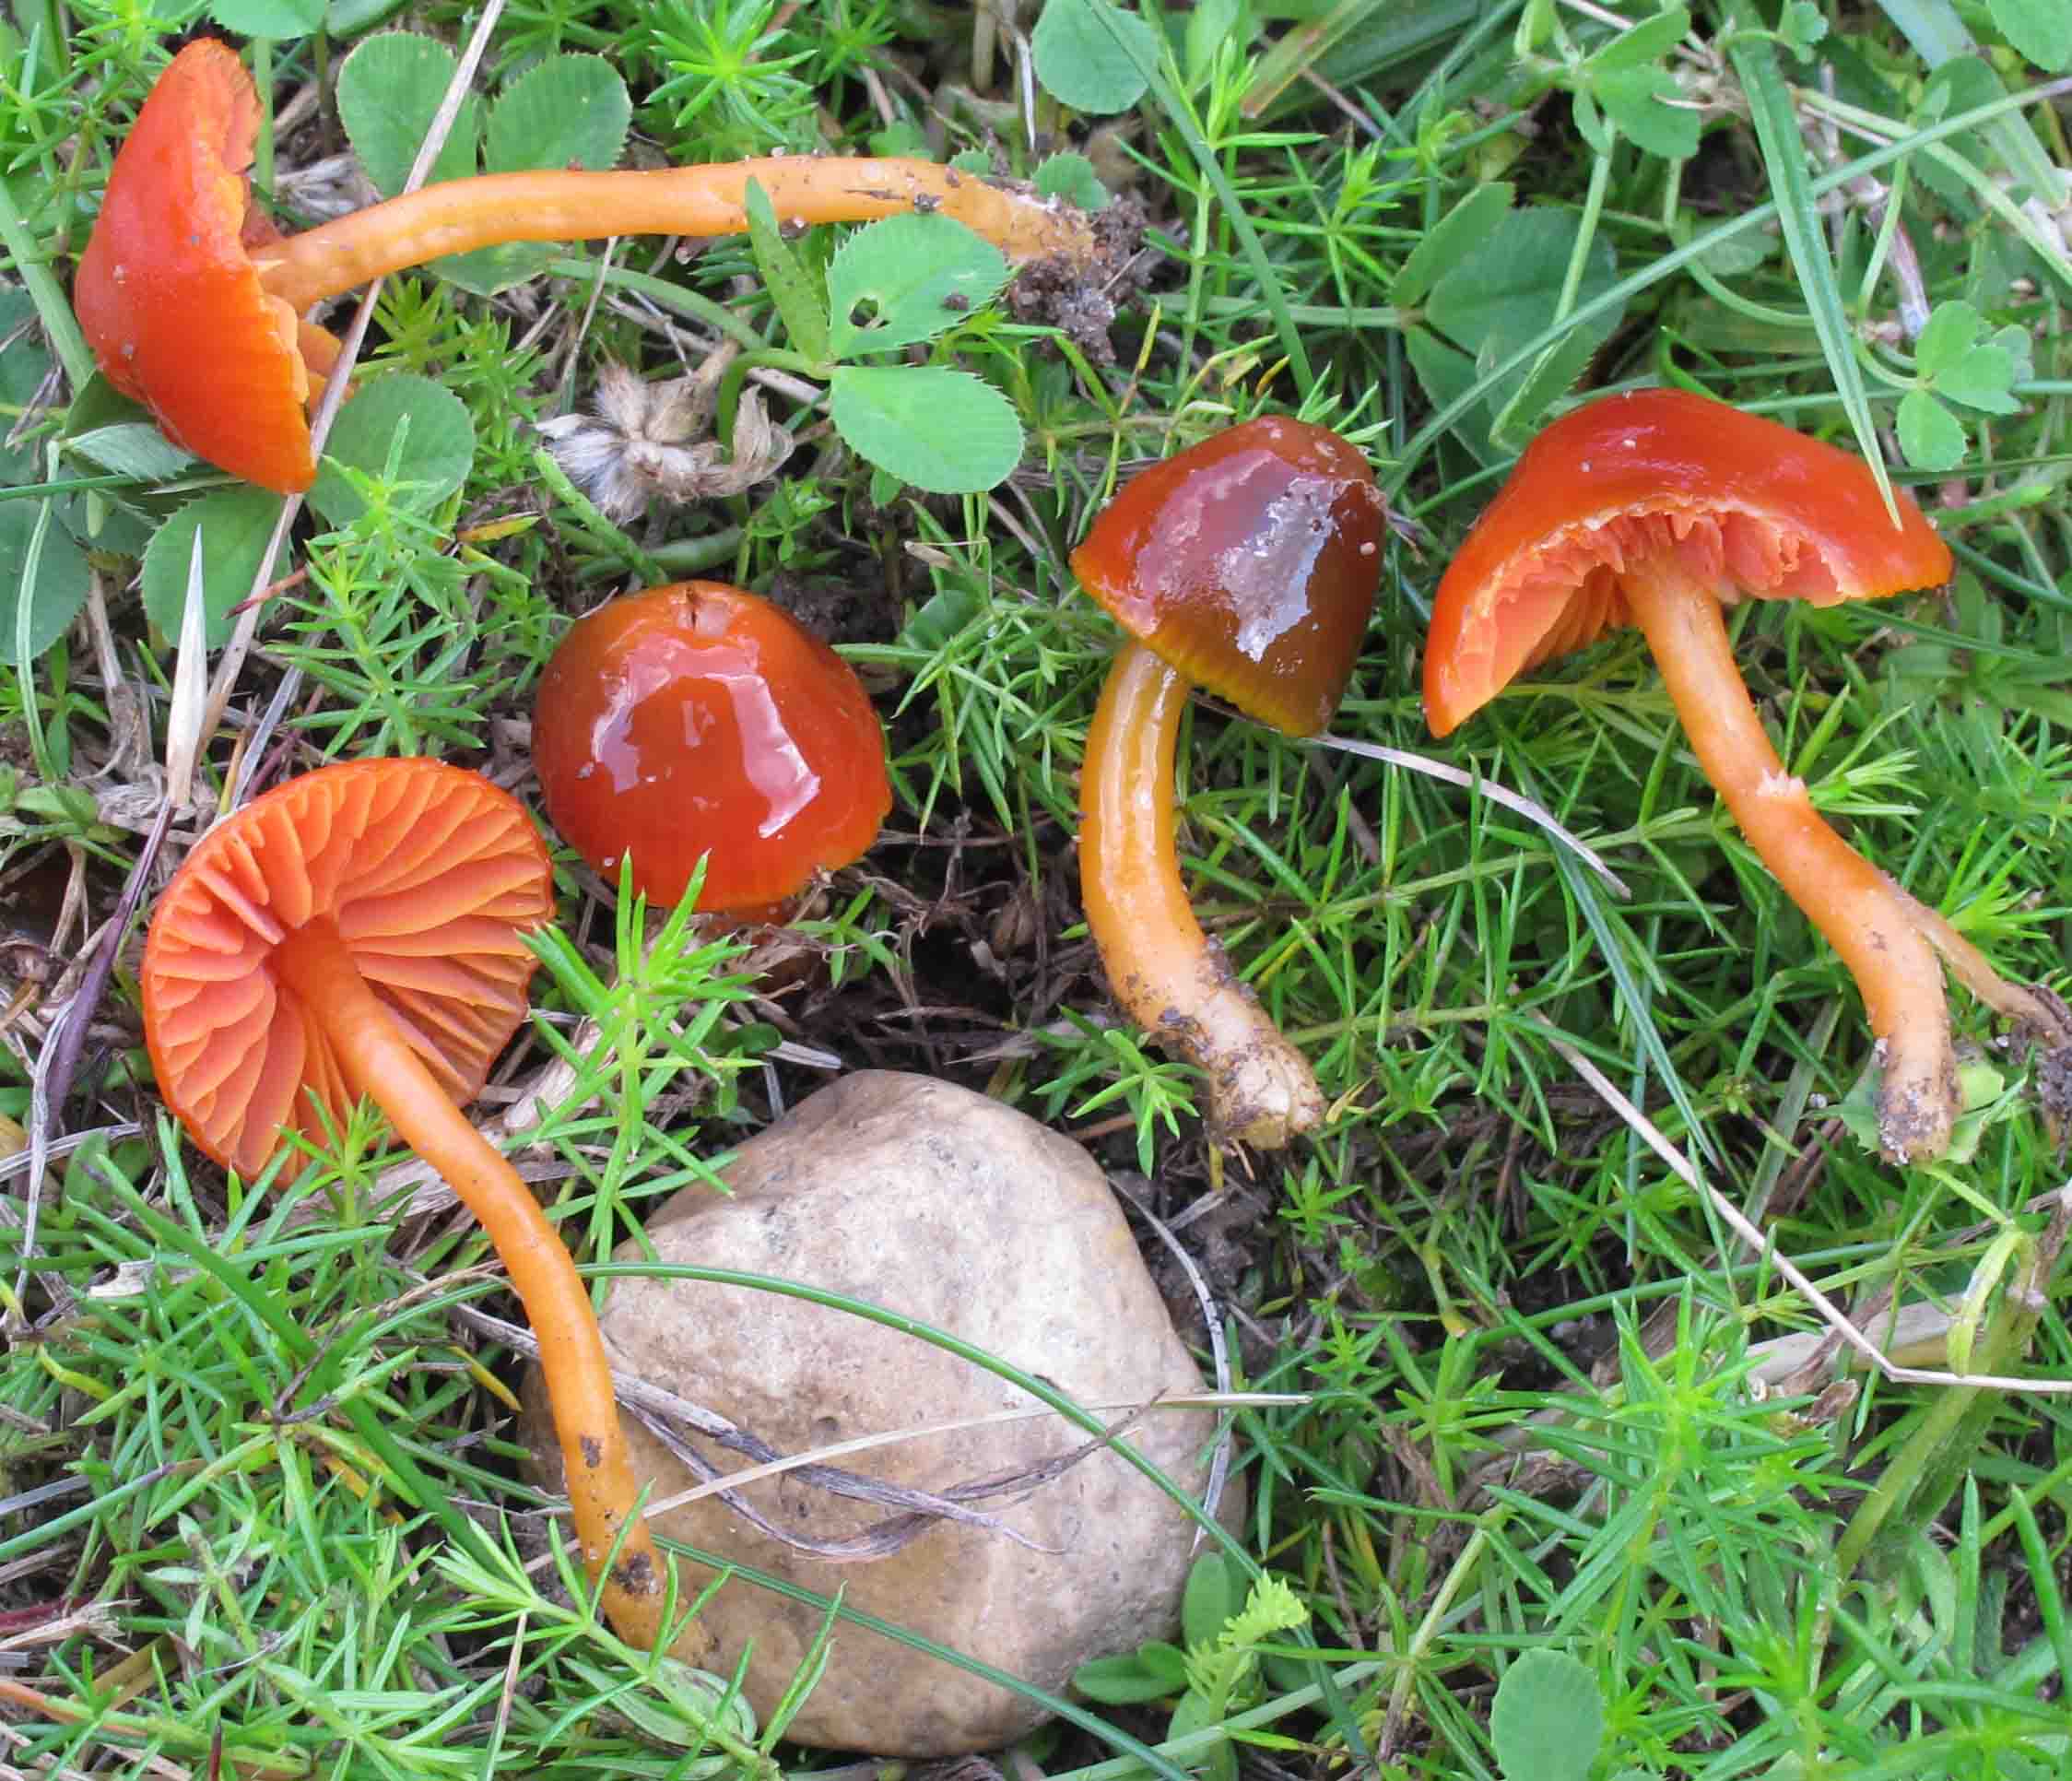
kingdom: Fungi
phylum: Basidiomycota
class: Agaricomycetes
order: Agaricales
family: Hygrophoraceae
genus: Gliophorus
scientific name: Gliophorus psittacinus
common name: Parrot wax-cap
